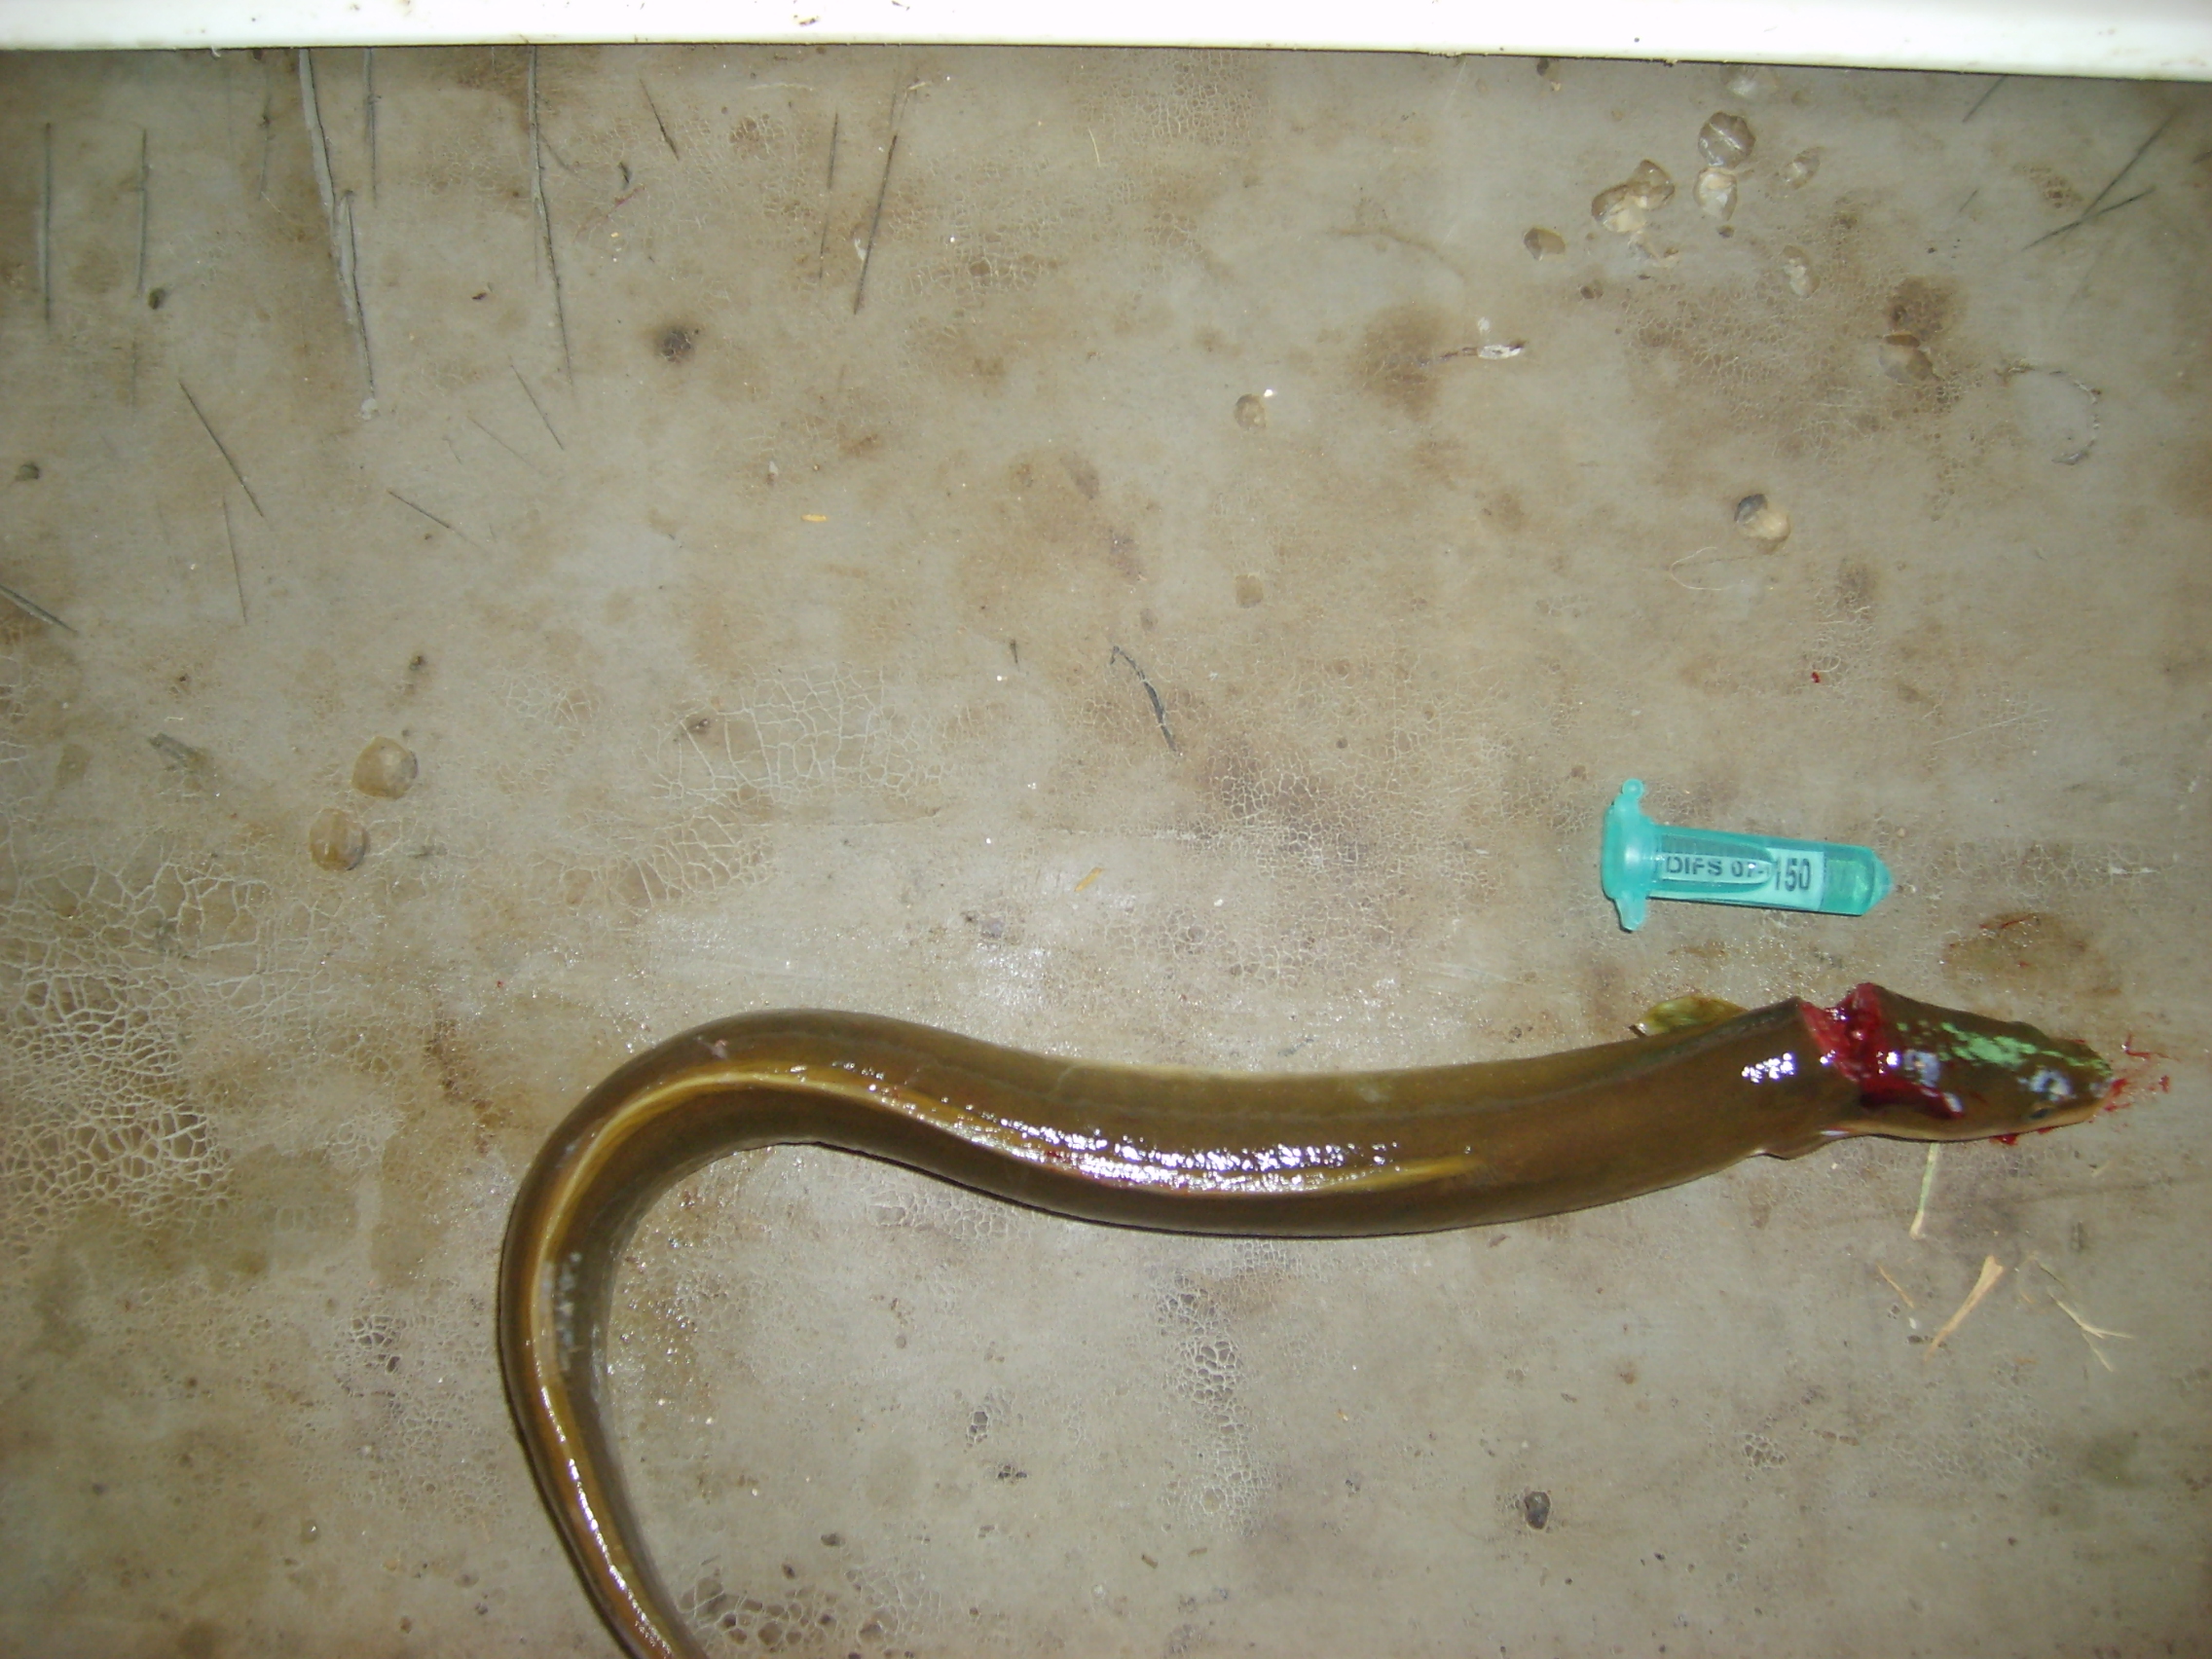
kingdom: Animalia
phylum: Chordata
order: Anguilliformes
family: Anguillidae
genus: Anguilla
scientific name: Anguilla mossambica
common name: African longfin eel
